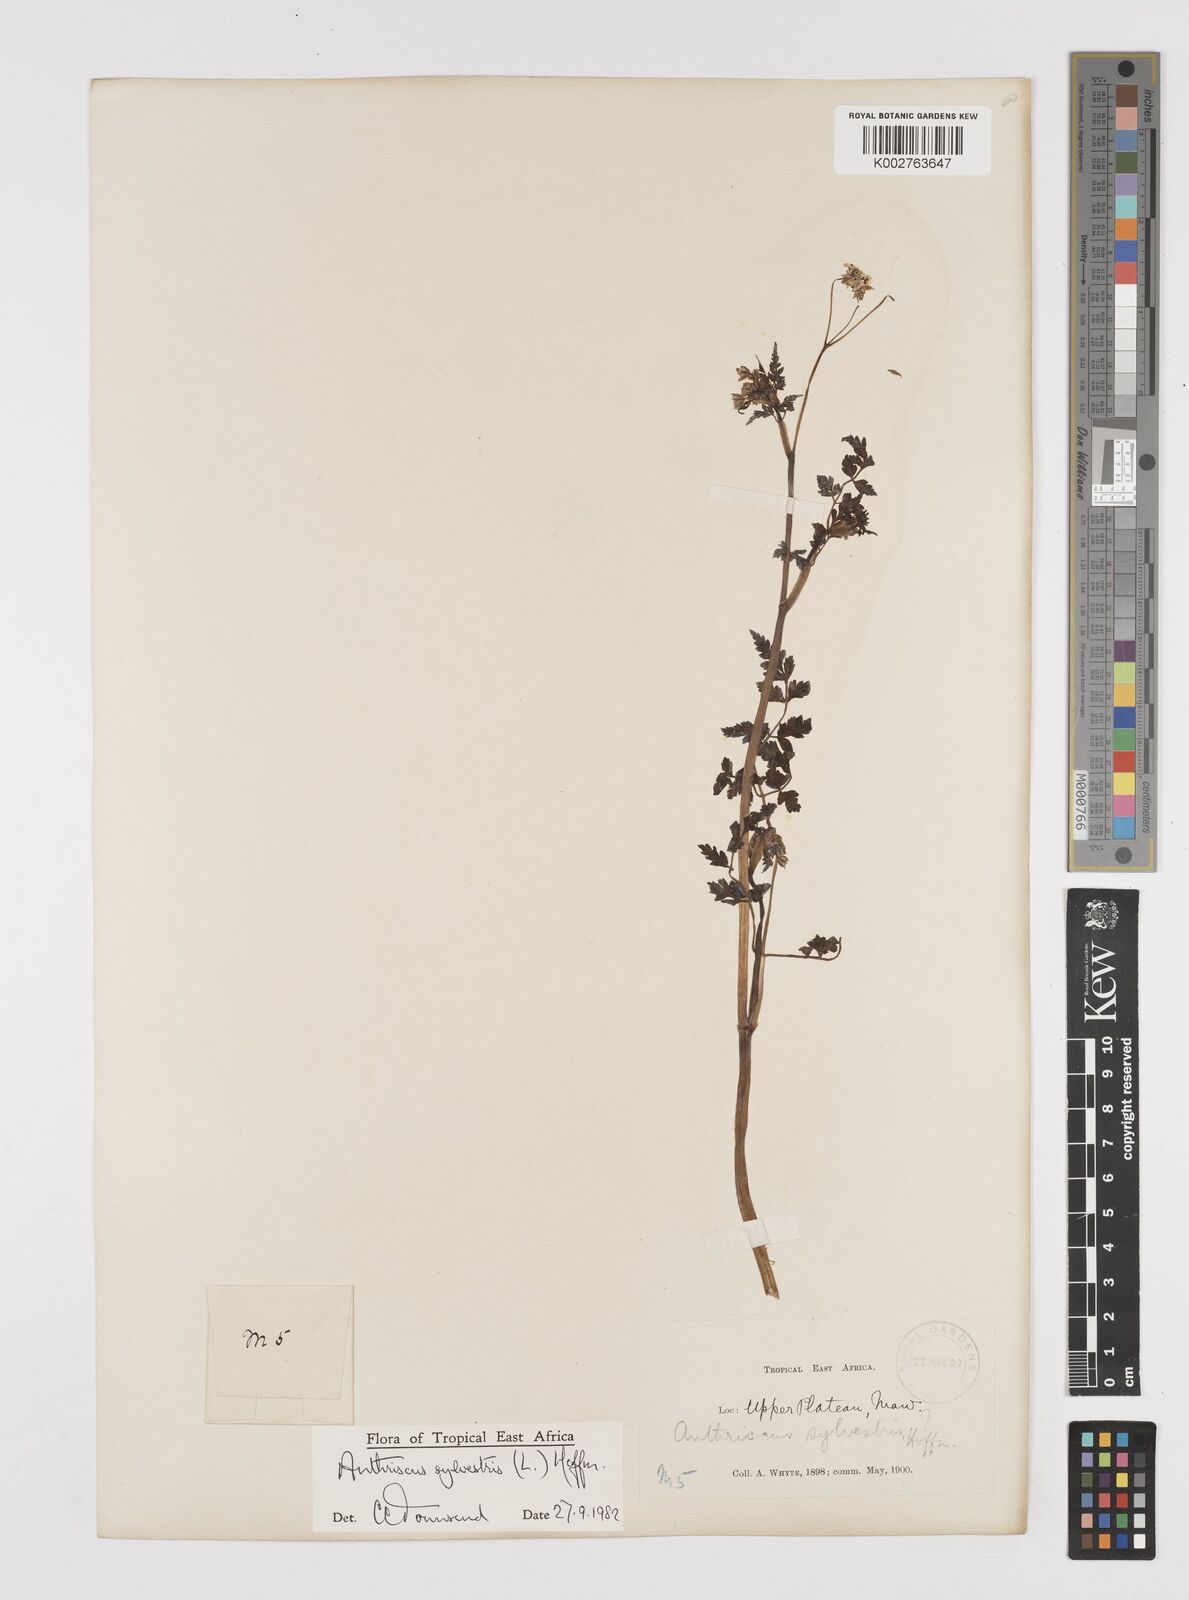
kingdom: Plantae
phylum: Tracheophyta
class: Magnoliopsida
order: Apiales
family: Apiaceae
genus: Anthriscus
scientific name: Anthriscus sylvestris
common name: Cow parsley
